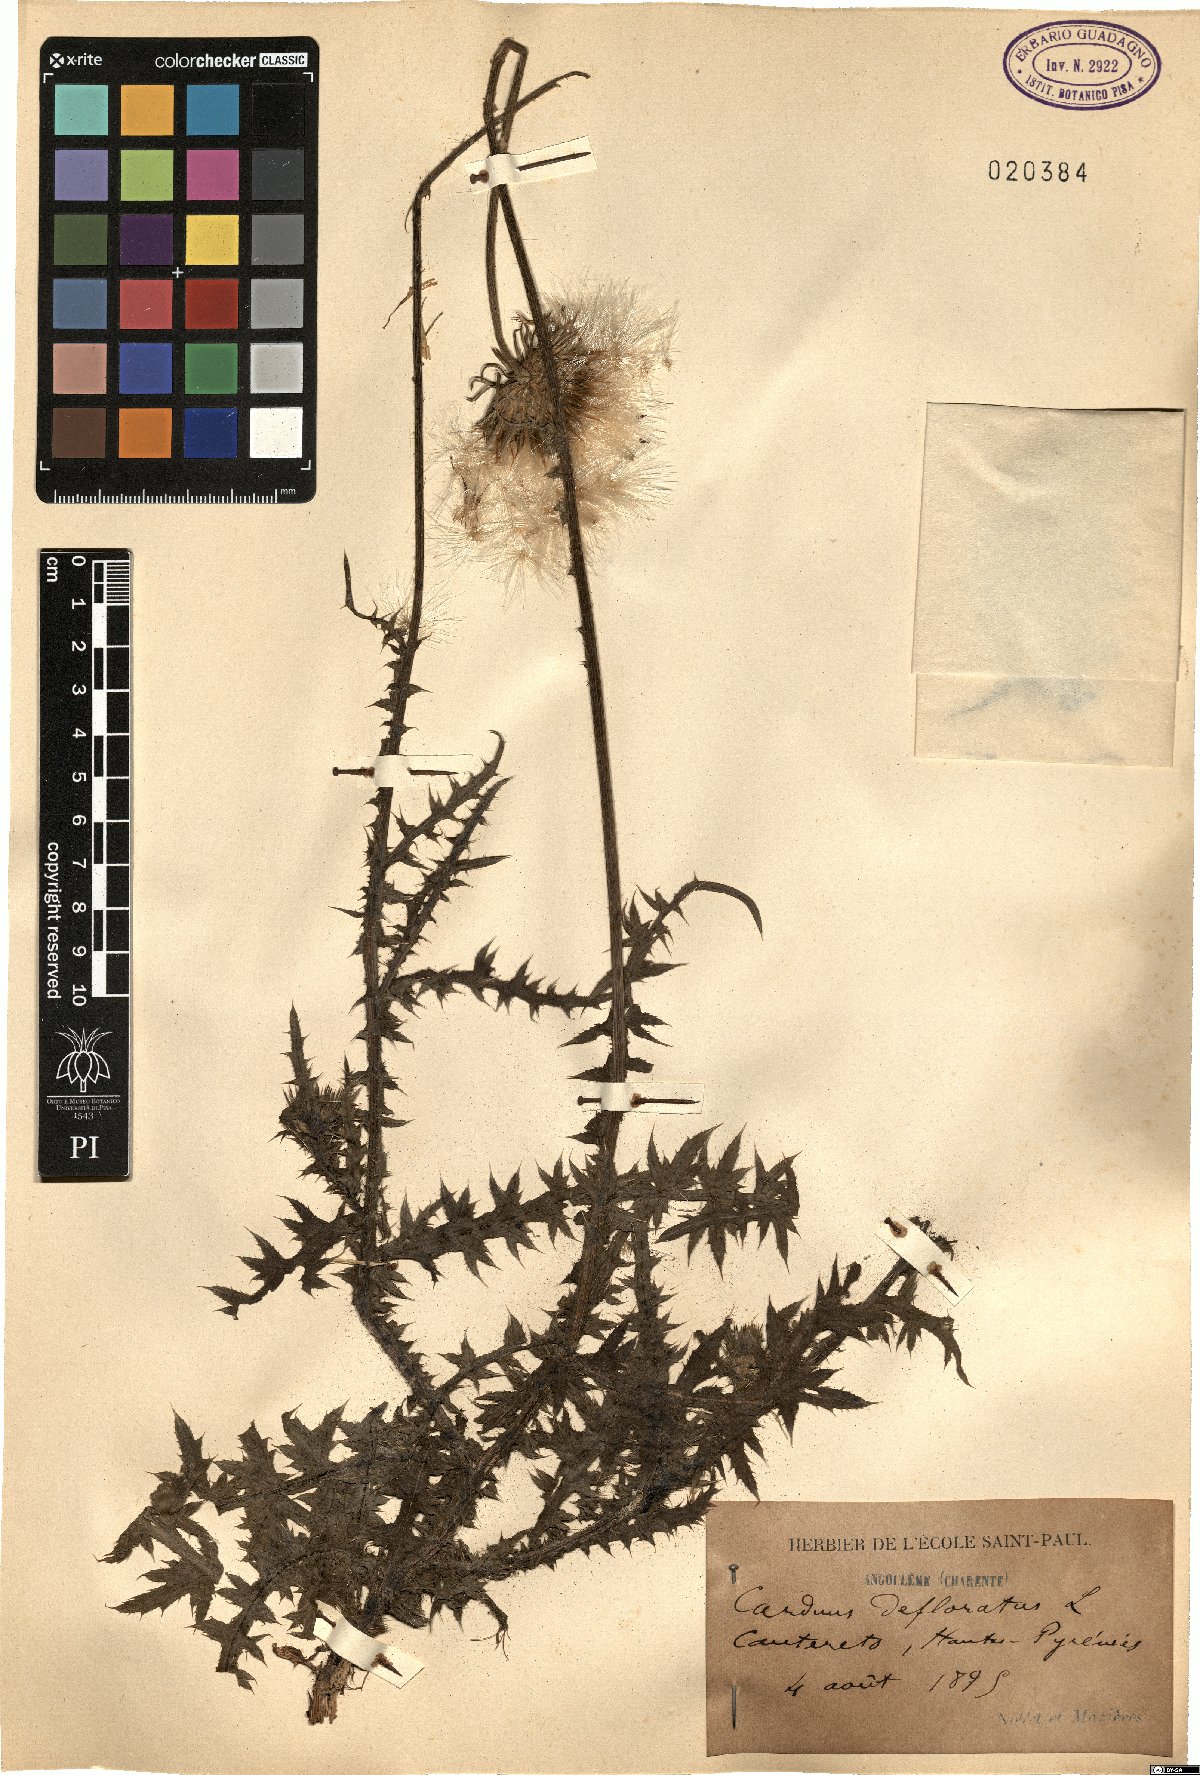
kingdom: Plantae
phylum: Tracheophyta
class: Magnoliopsida
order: Asterales
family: Asteraceae
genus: Carduus
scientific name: Carduus defloratus
